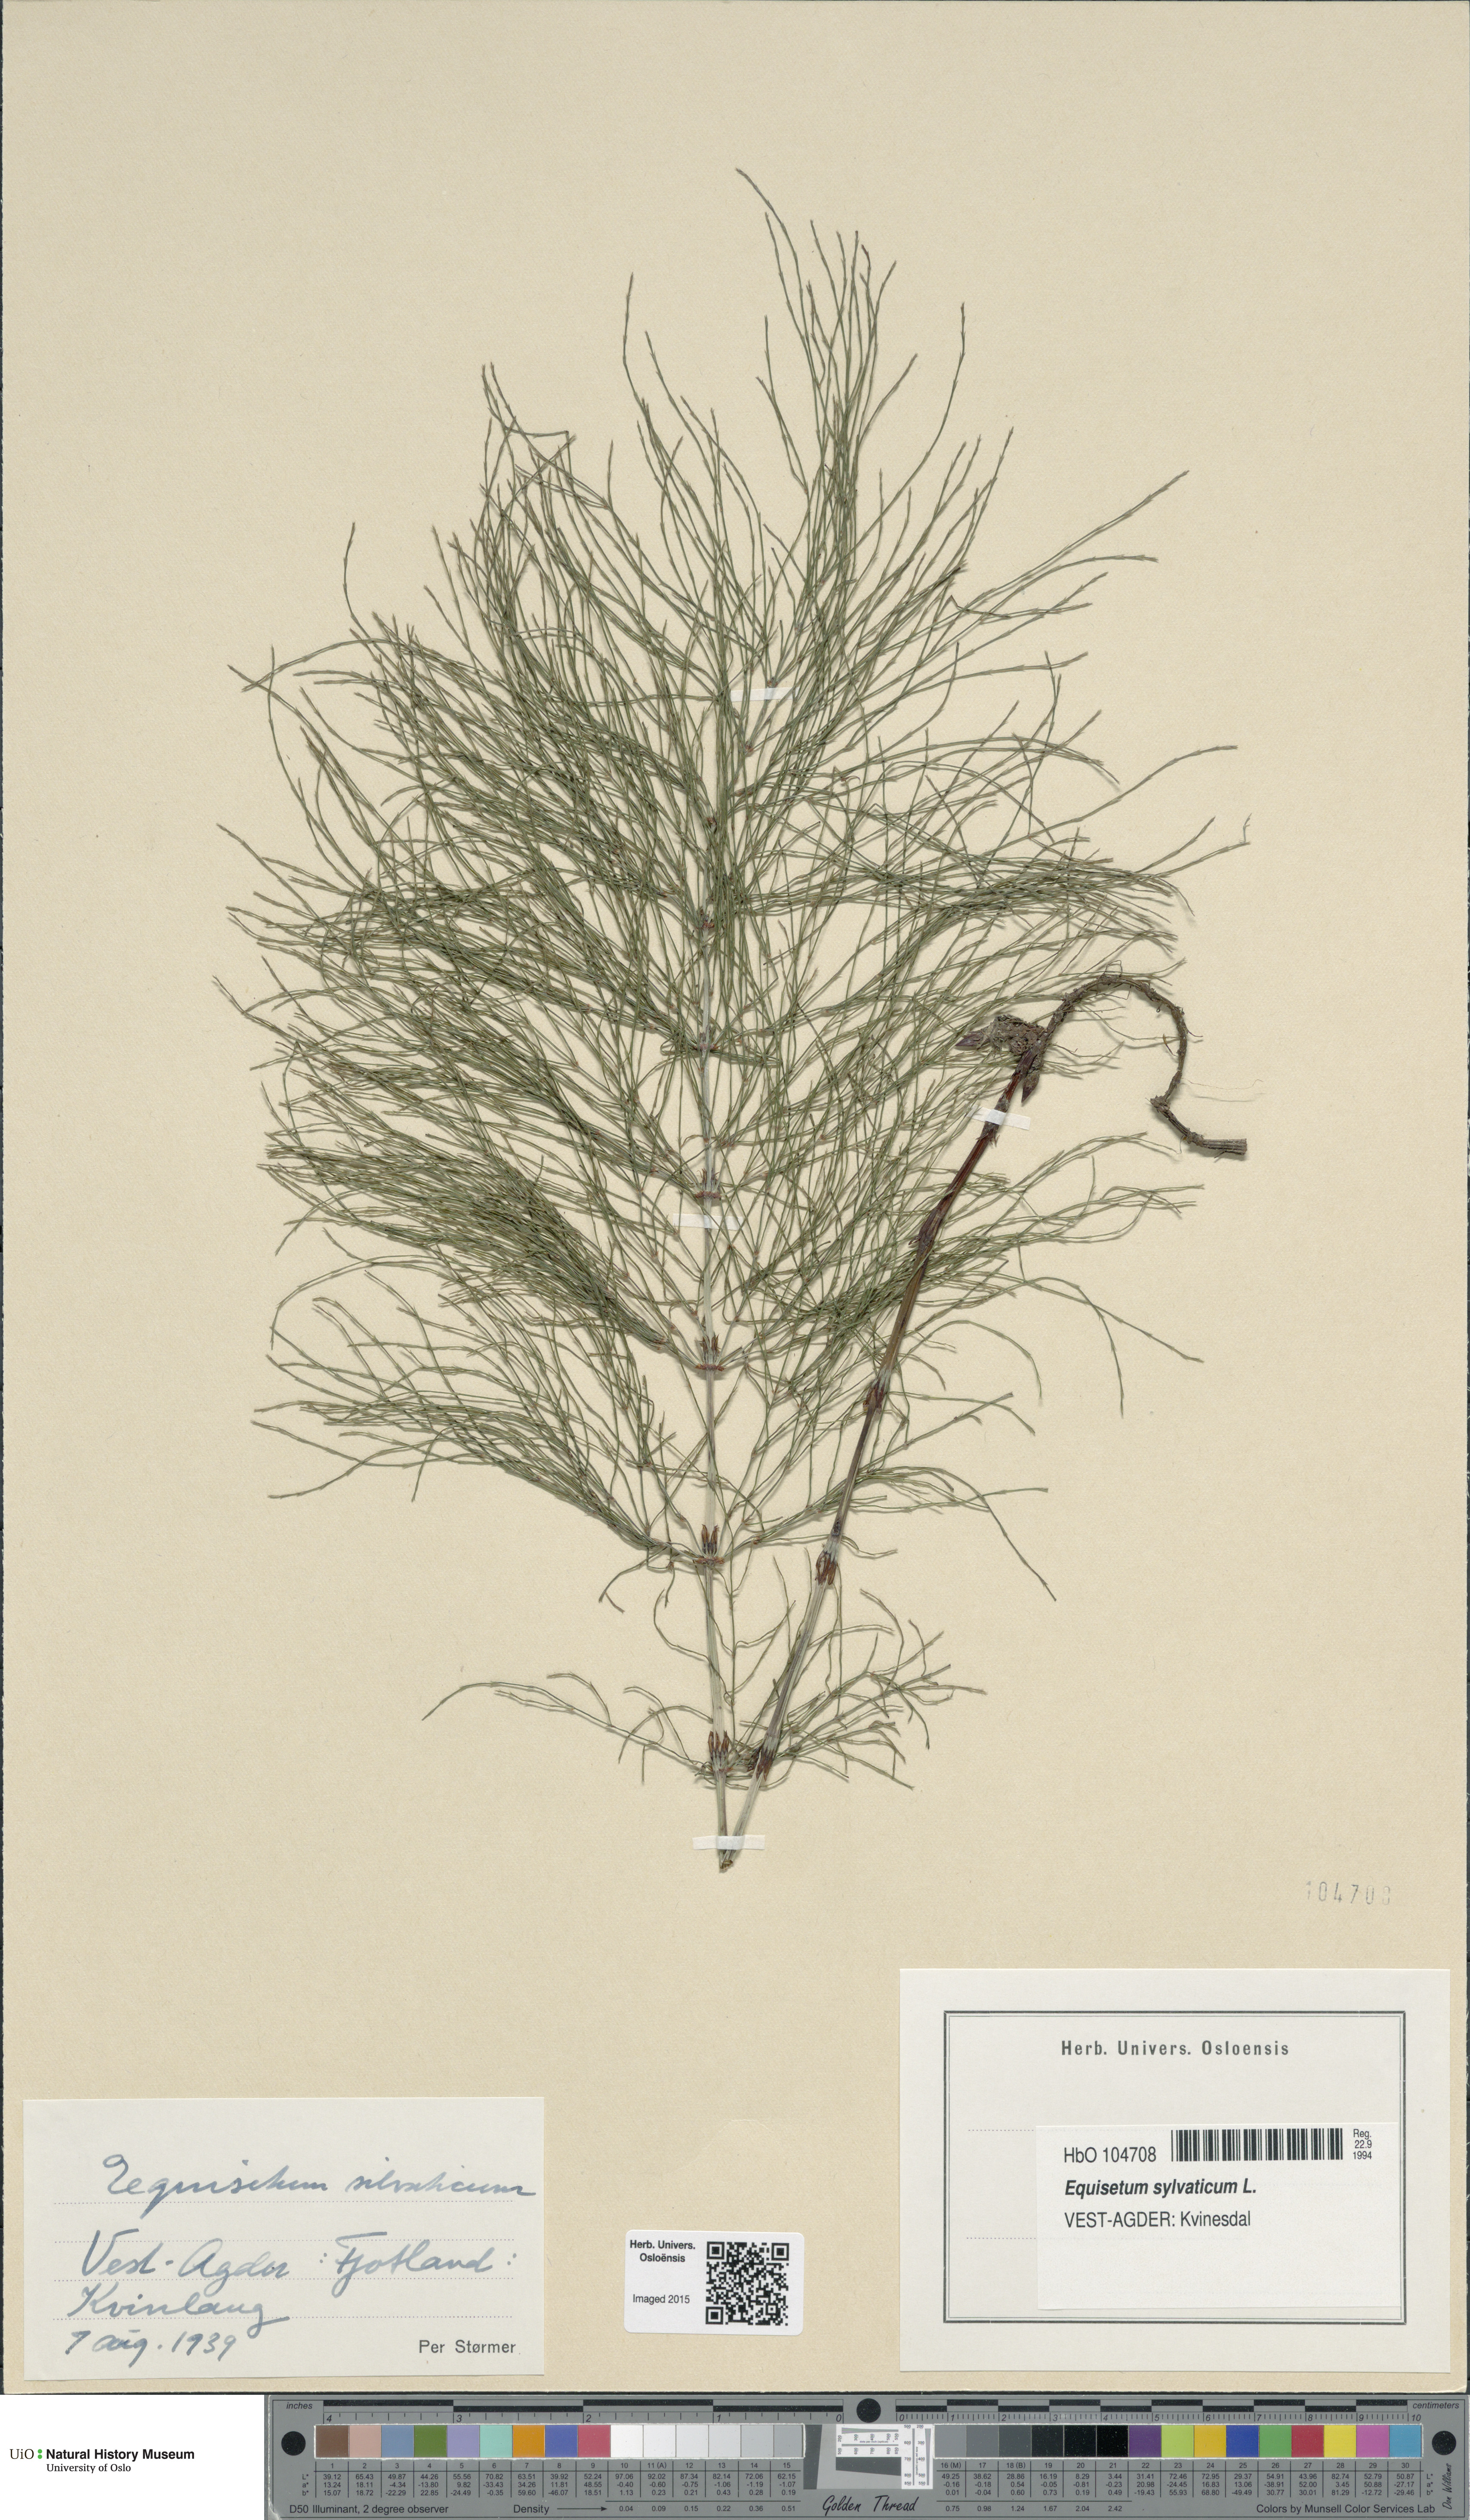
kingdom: Plantae
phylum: Tracheophyta
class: Polypodiopsida
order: Equisetales
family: Equisetaceae
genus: Equisetum
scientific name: Equisetum sylvaticum
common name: Wood horsetail
